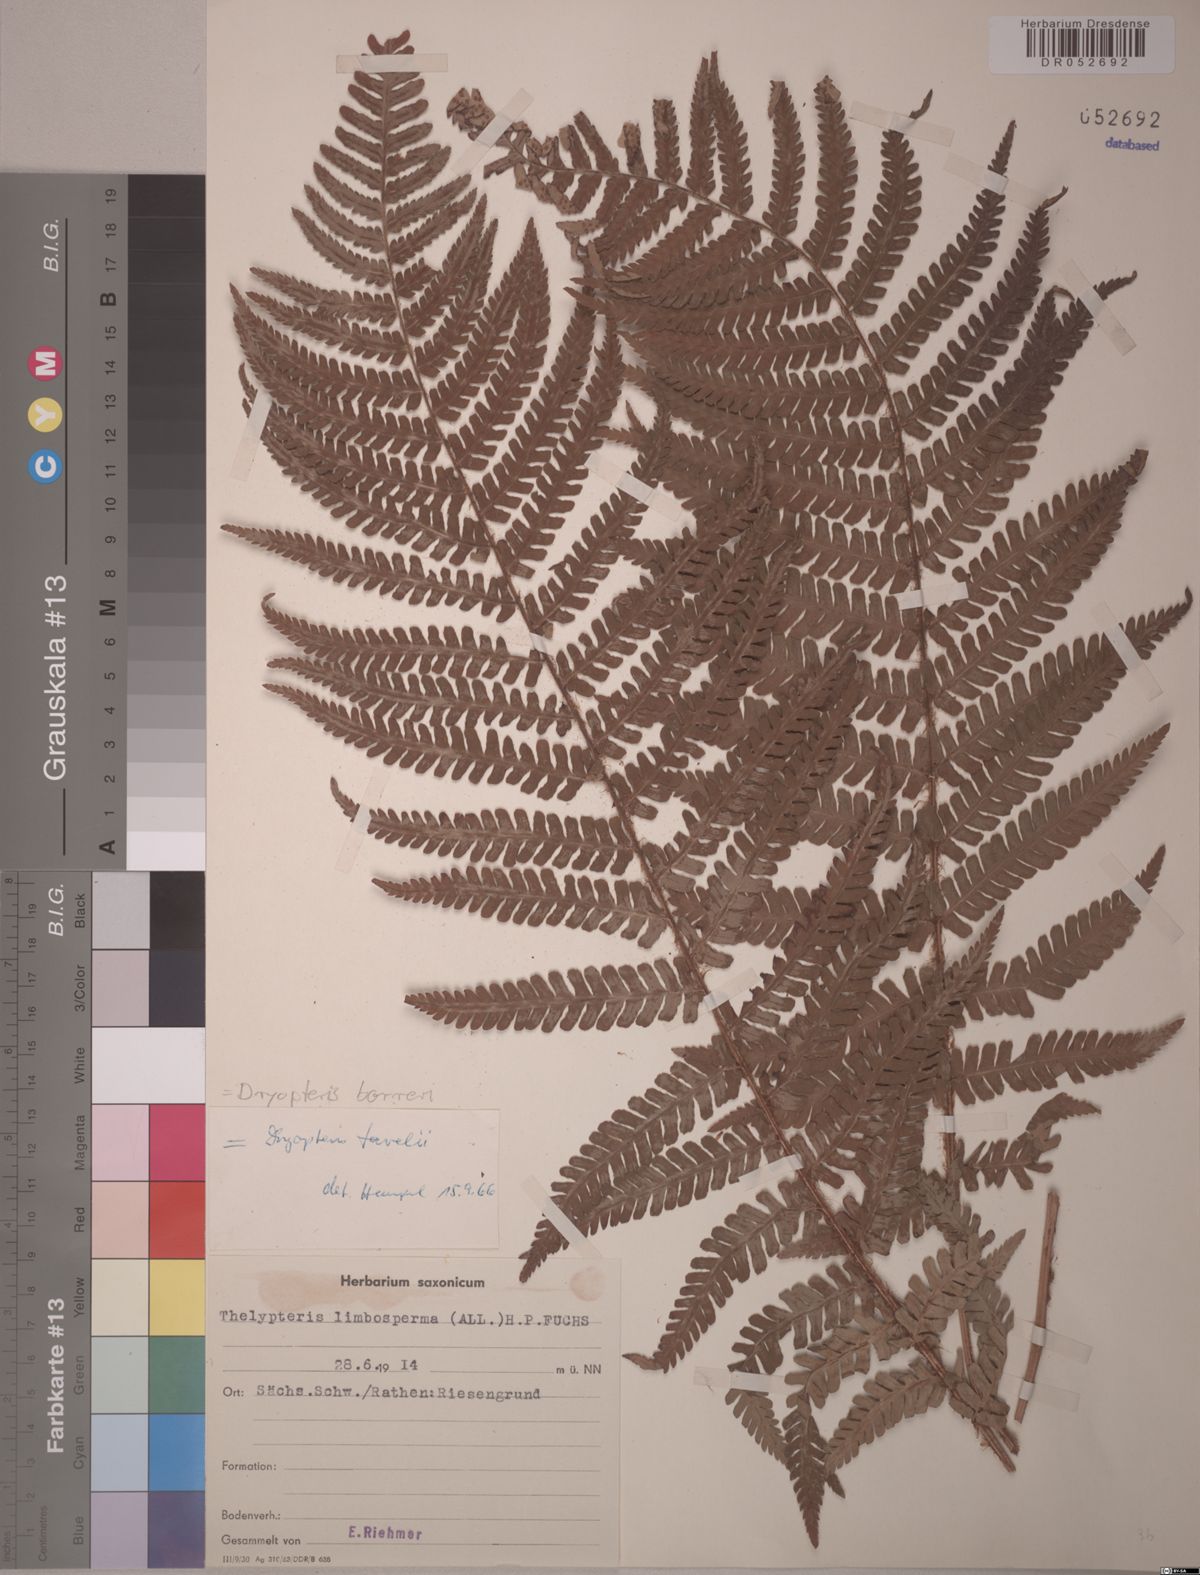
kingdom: Plantae
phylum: Tracheophyta
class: Polypodiopsida
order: Polypodiales
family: Dryopteridaceae
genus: Dryopteris
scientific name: Dryopteris borreri
